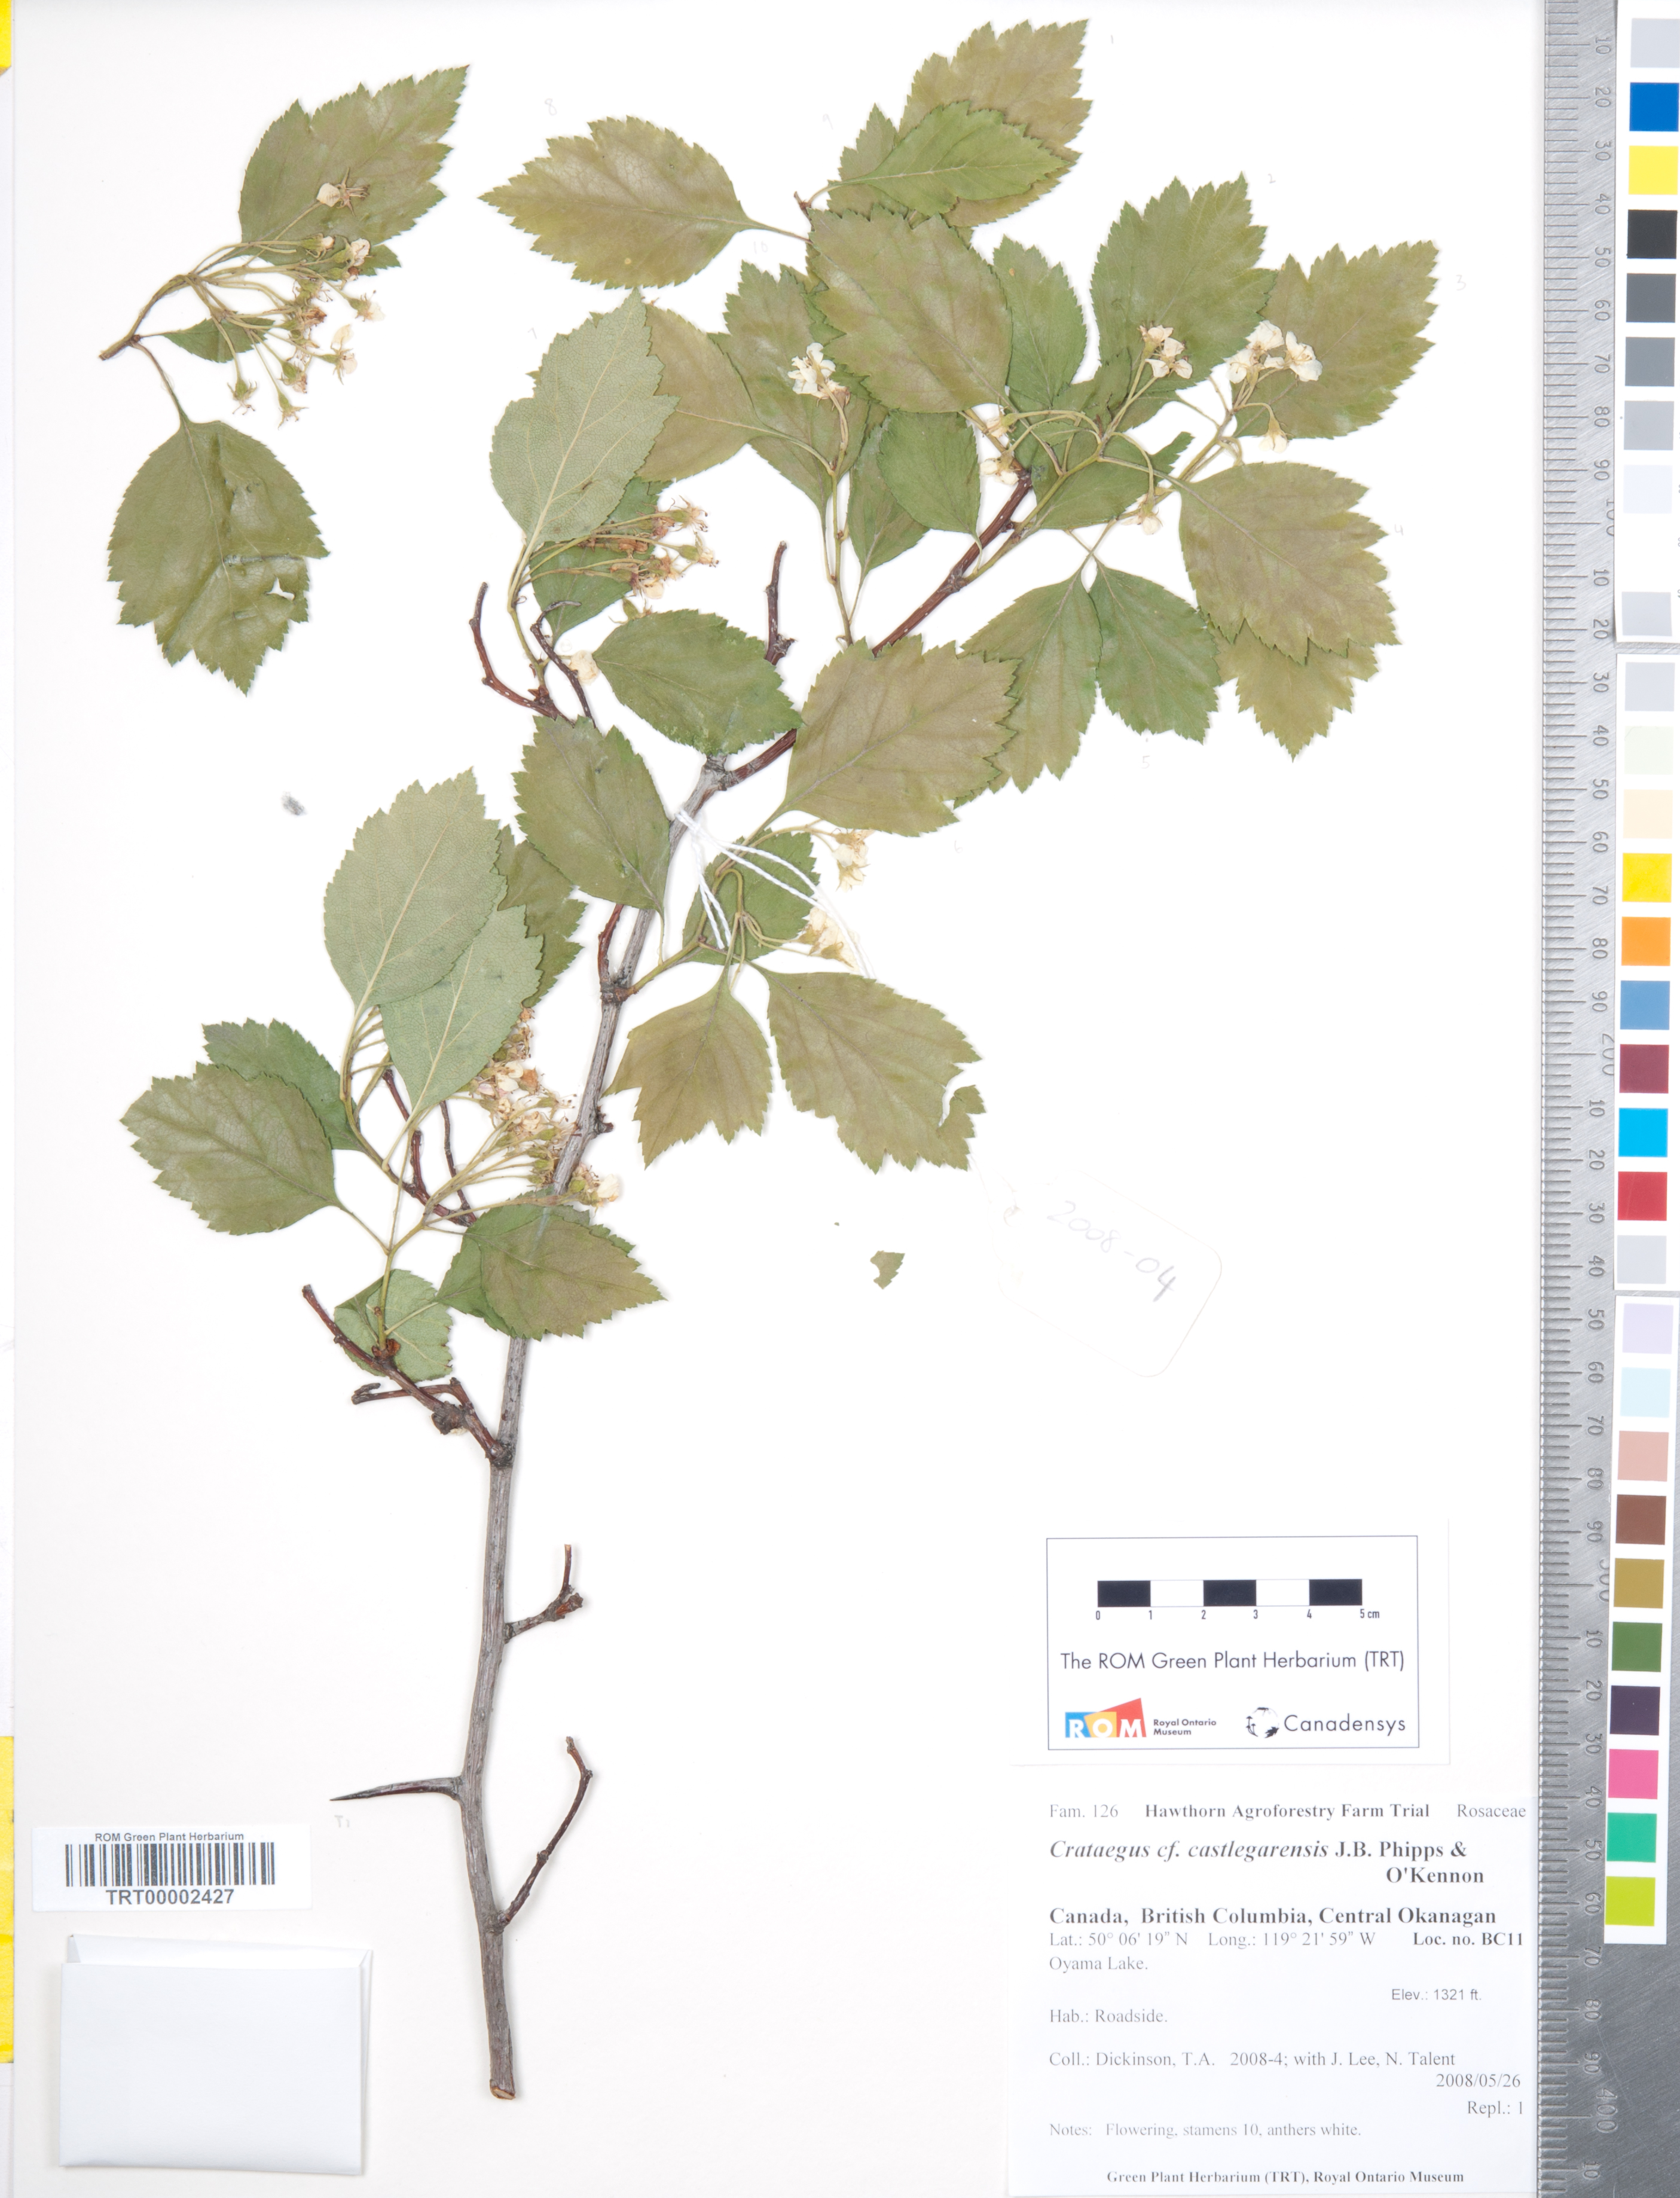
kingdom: Plantae
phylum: Tracheophyta
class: Magnoliopsida
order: Rosales
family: Rosaceae
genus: Crataegus
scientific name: Crataegus castlegarensis
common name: Castlegar hawthorn
